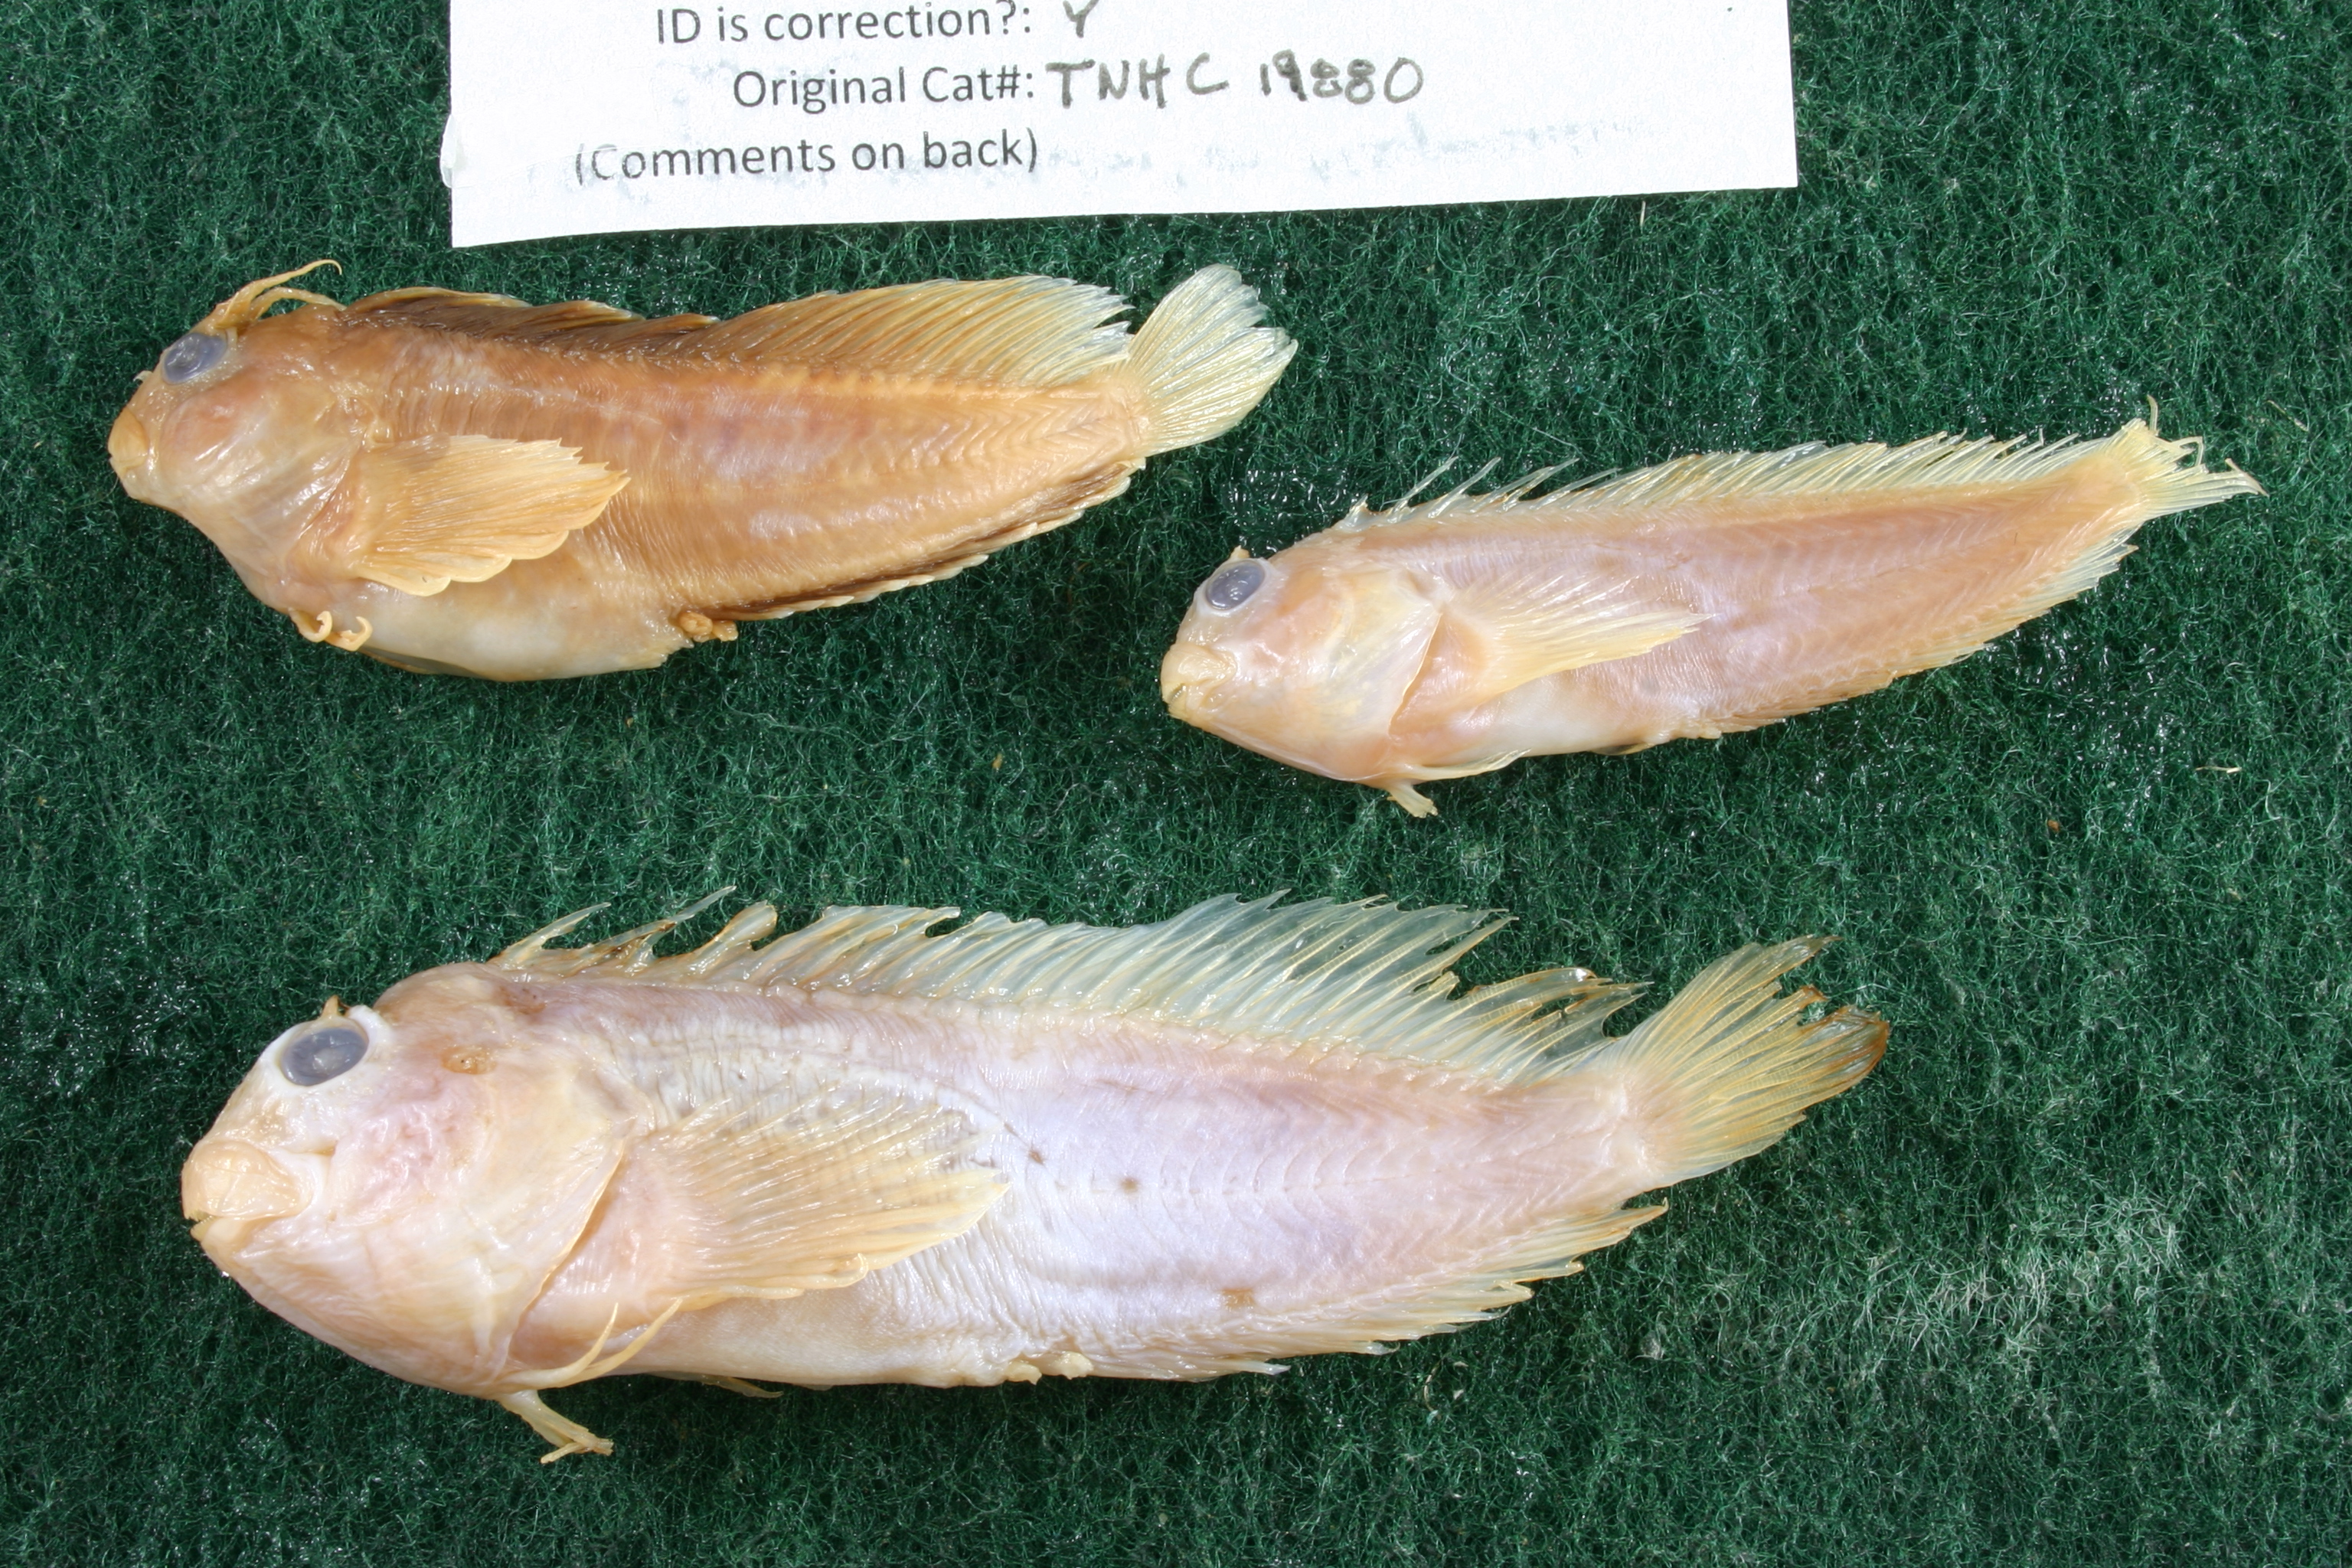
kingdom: Animalia
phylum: Chordata
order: Perciformes
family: Blenniidae
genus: Hypleurochilus
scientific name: Hypleurochilus multifilis
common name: Featherduster blenny
